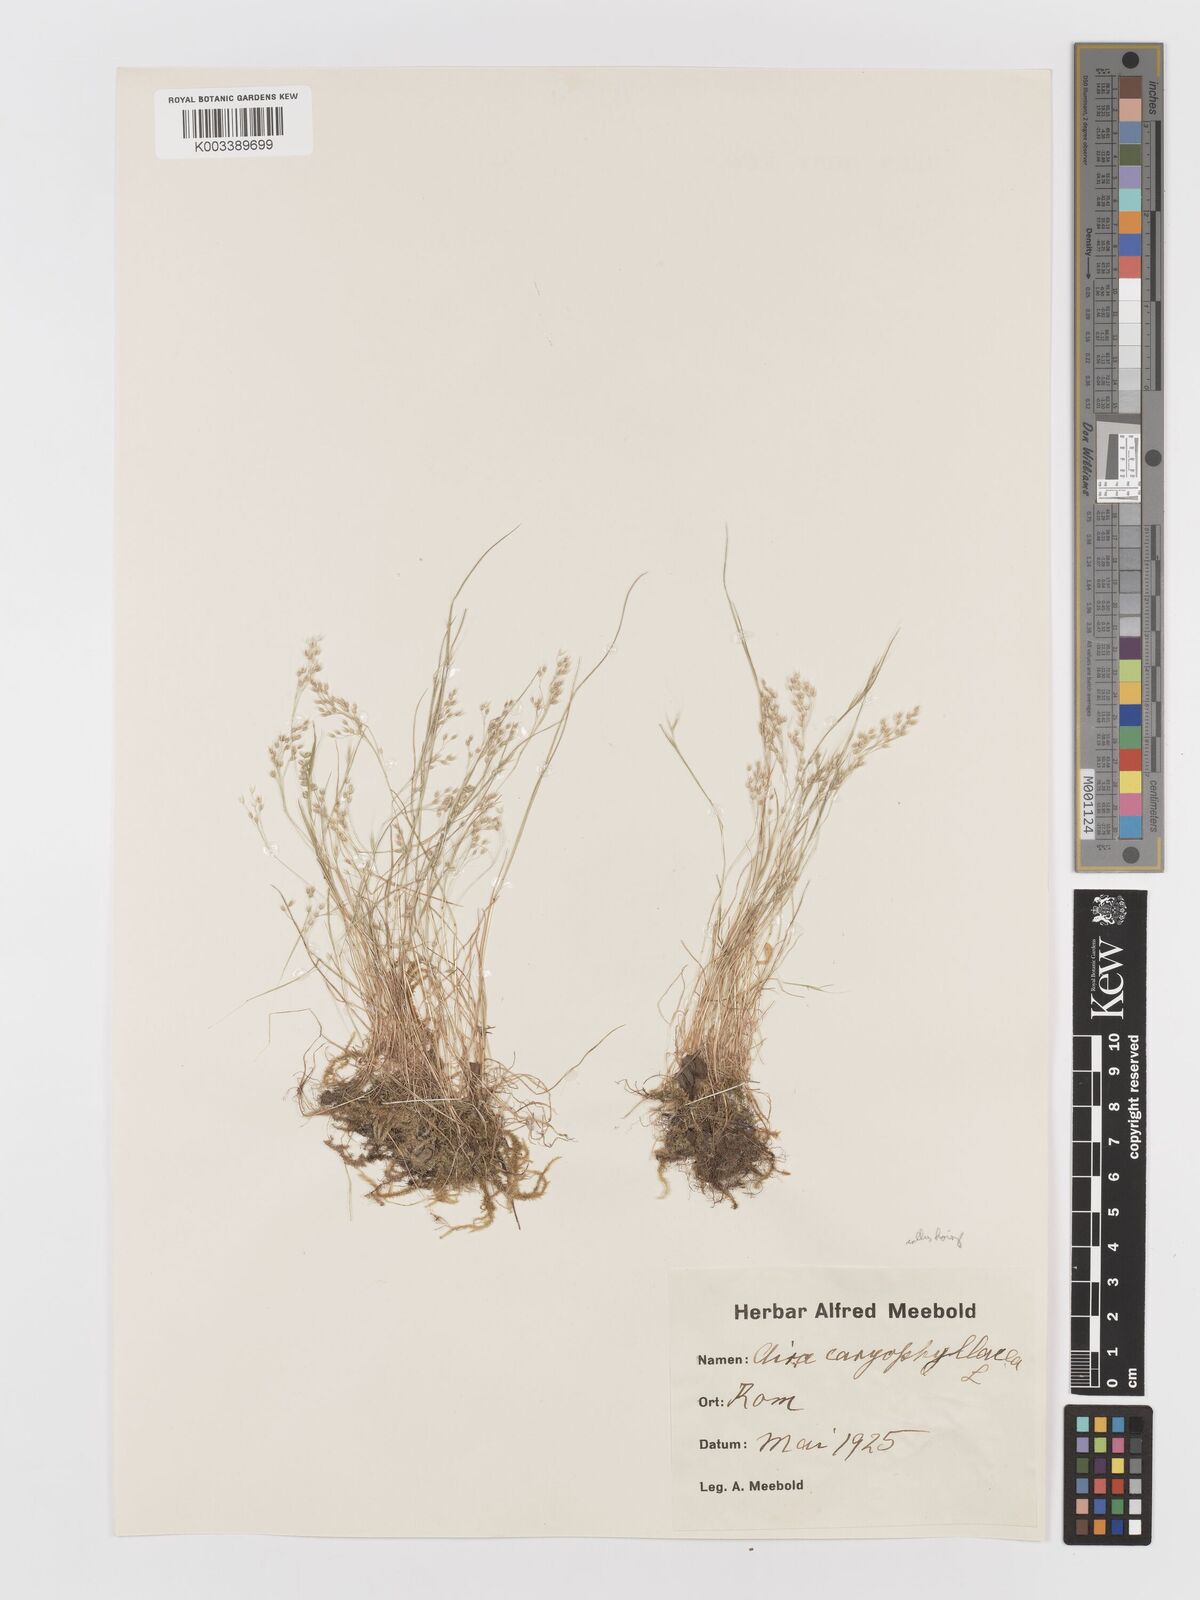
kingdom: Plantae
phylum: Tracheophyta
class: Liliopsida
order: Poales
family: Poaceae
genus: Aira
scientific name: Aira caryophyllea
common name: Silver hairgrass
